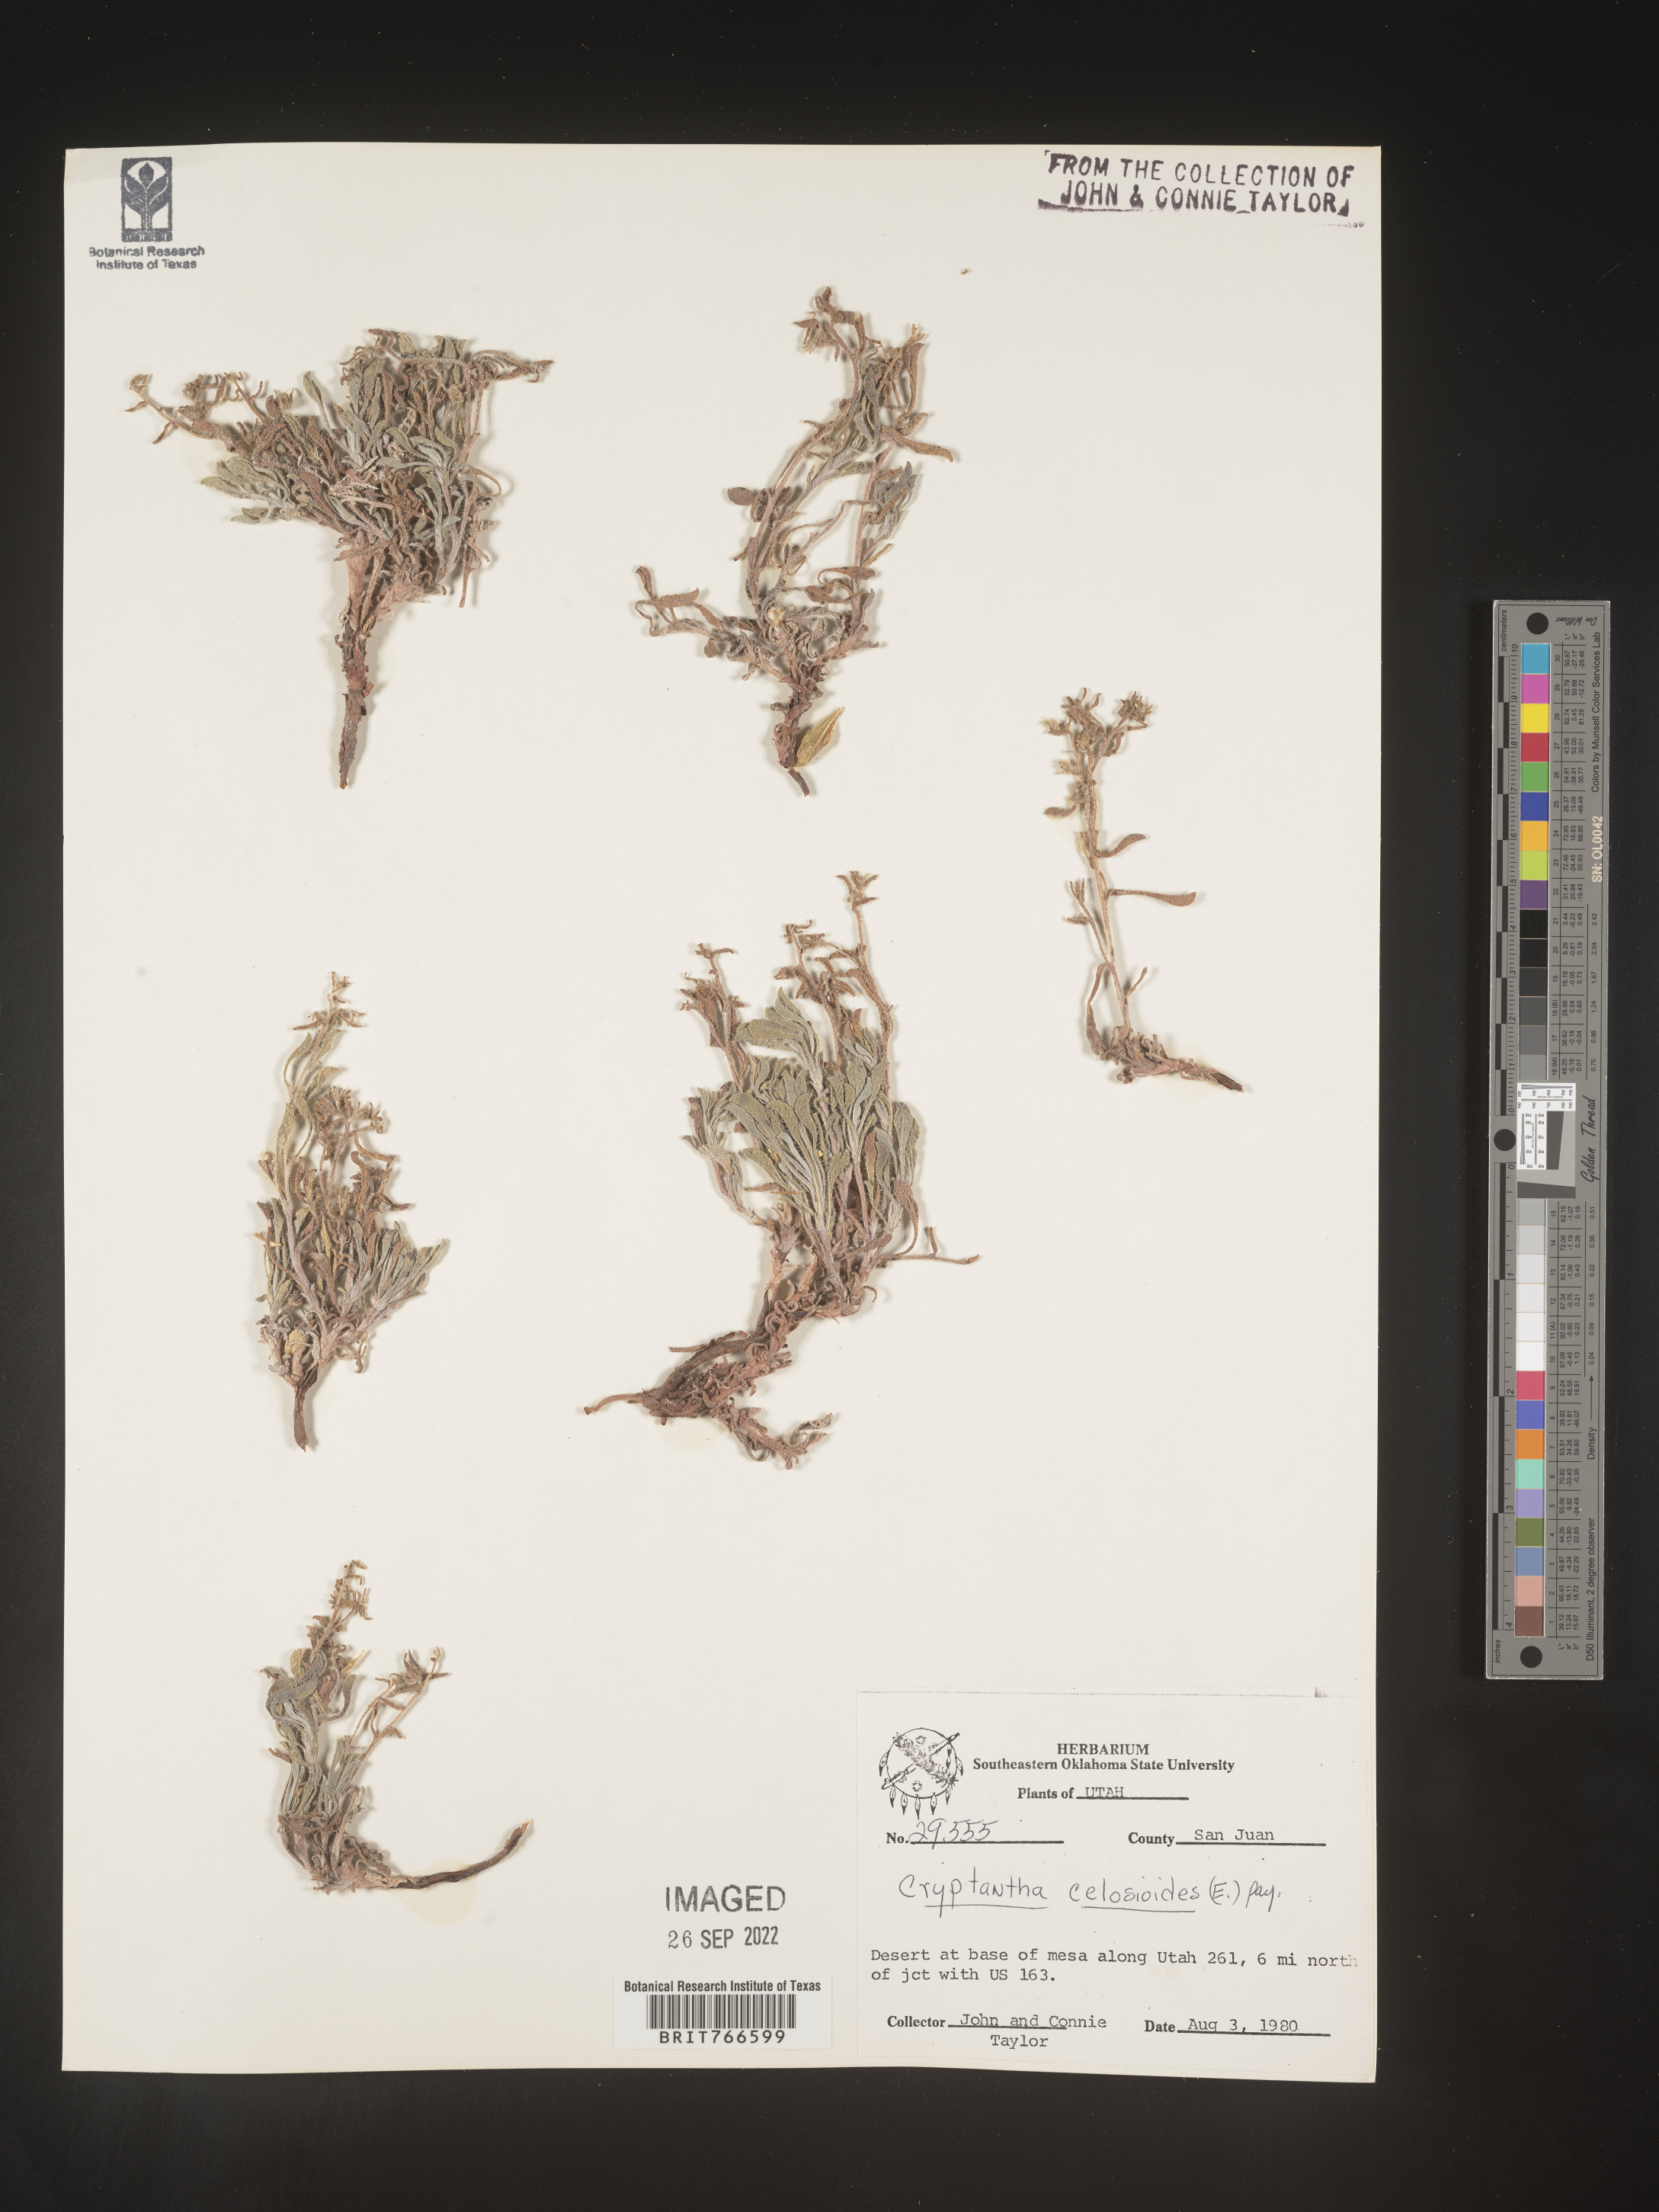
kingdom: Plantae
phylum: Tracheophyta
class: Magnoliopsida
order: Boraginales
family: Boraginaceae
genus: Cryptantha
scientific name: Cryptantha
